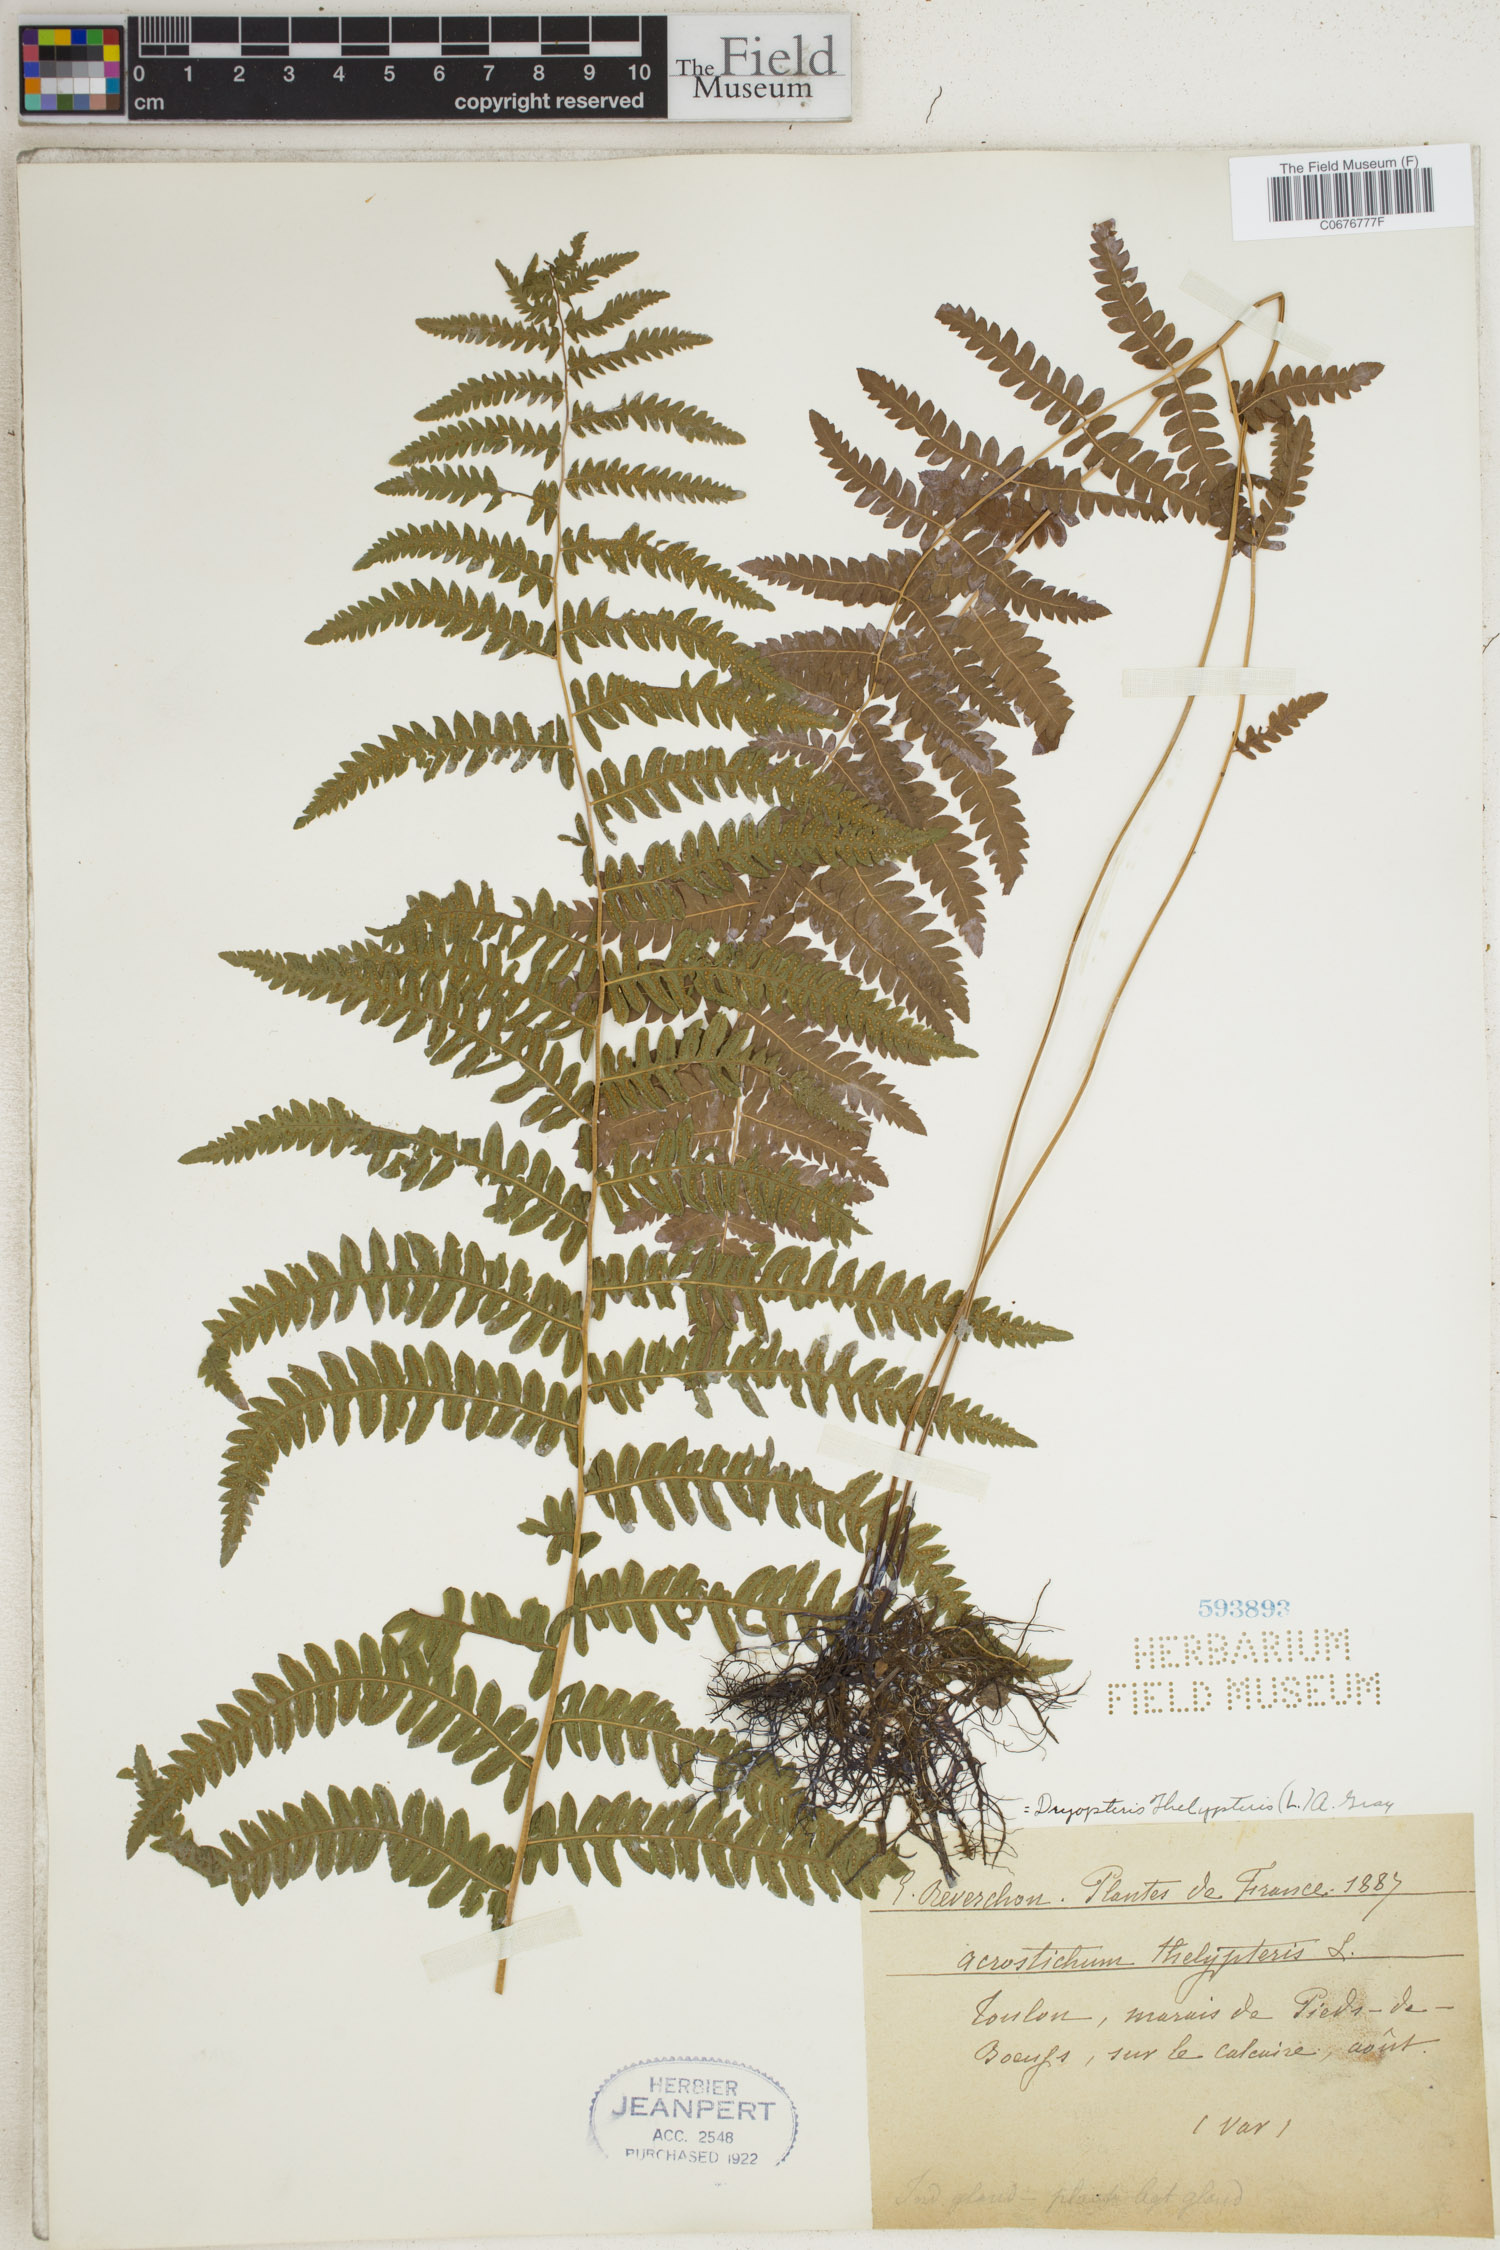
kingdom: Plantae
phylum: Tracheophyta
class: Polypodiopsida
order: Polypodiales
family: Thelypteridaceae
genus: Thelypteris
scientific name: Thelypteris palustris
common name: Marsh fern
